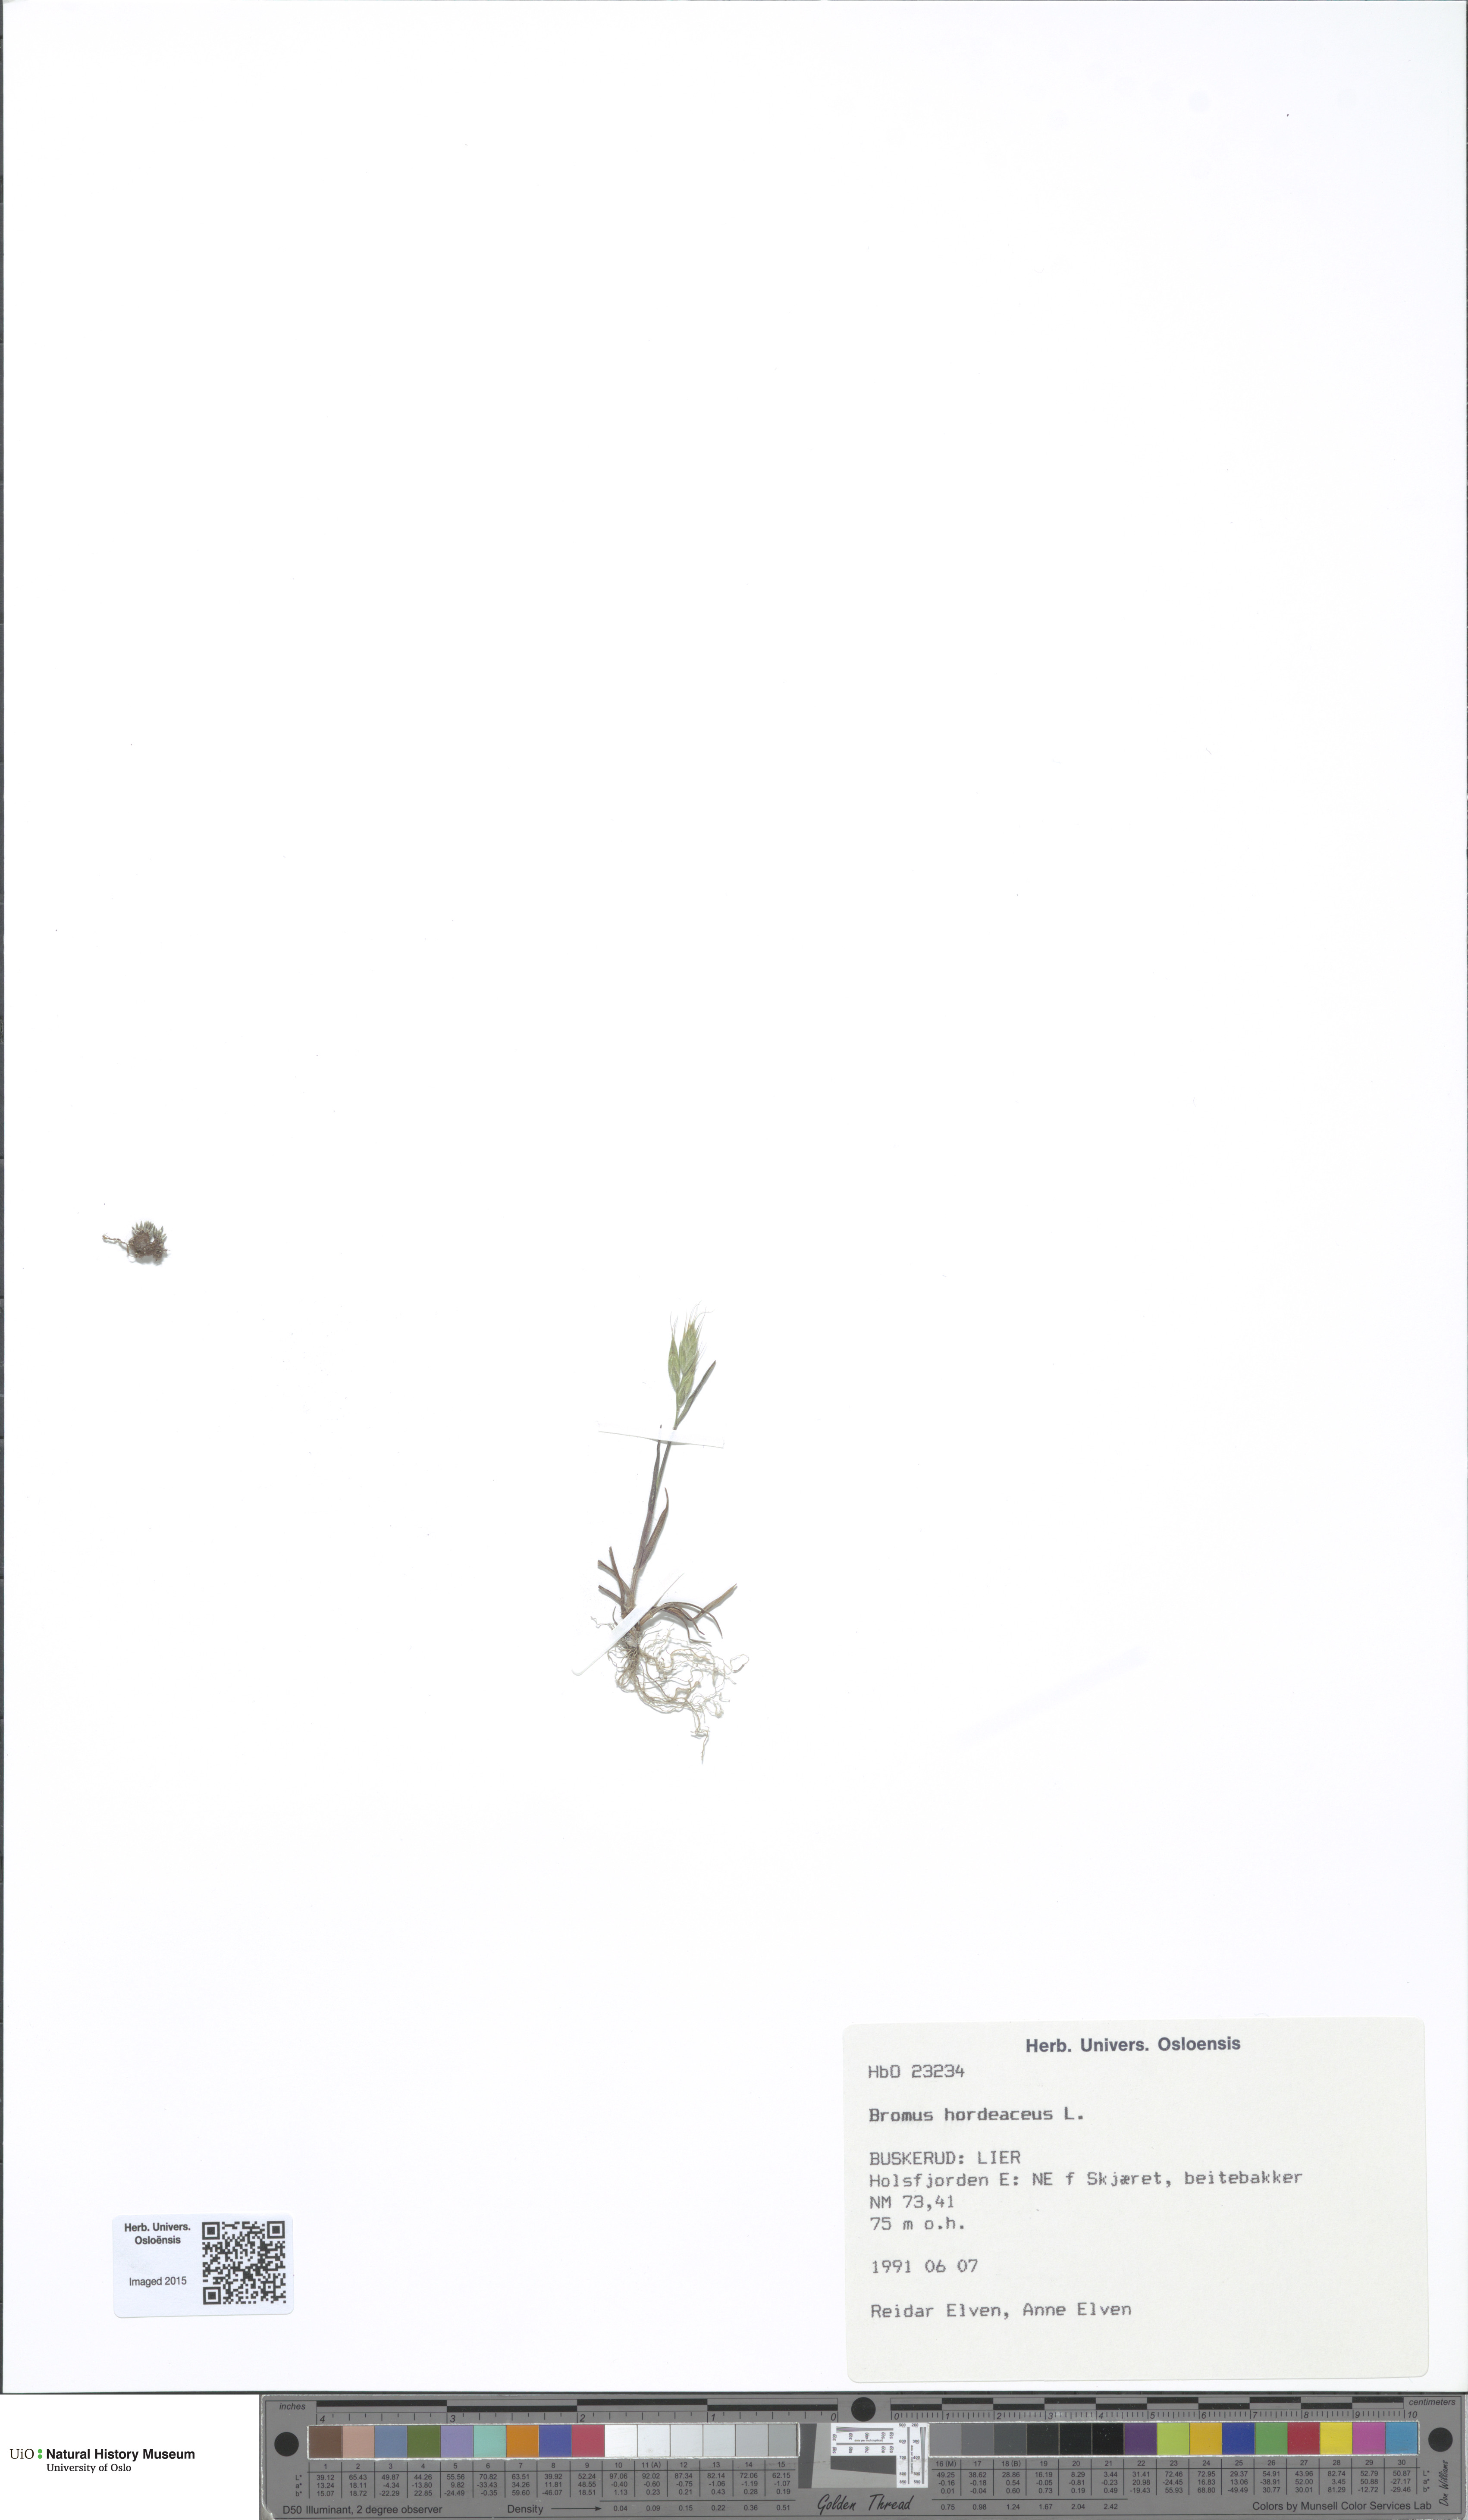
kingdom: Plantae
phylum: Tracheophyta
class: Liliopsida
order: Poales
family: Poaceae
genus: Bromus
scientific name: Bromus hordeaceus
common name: Soft brome
